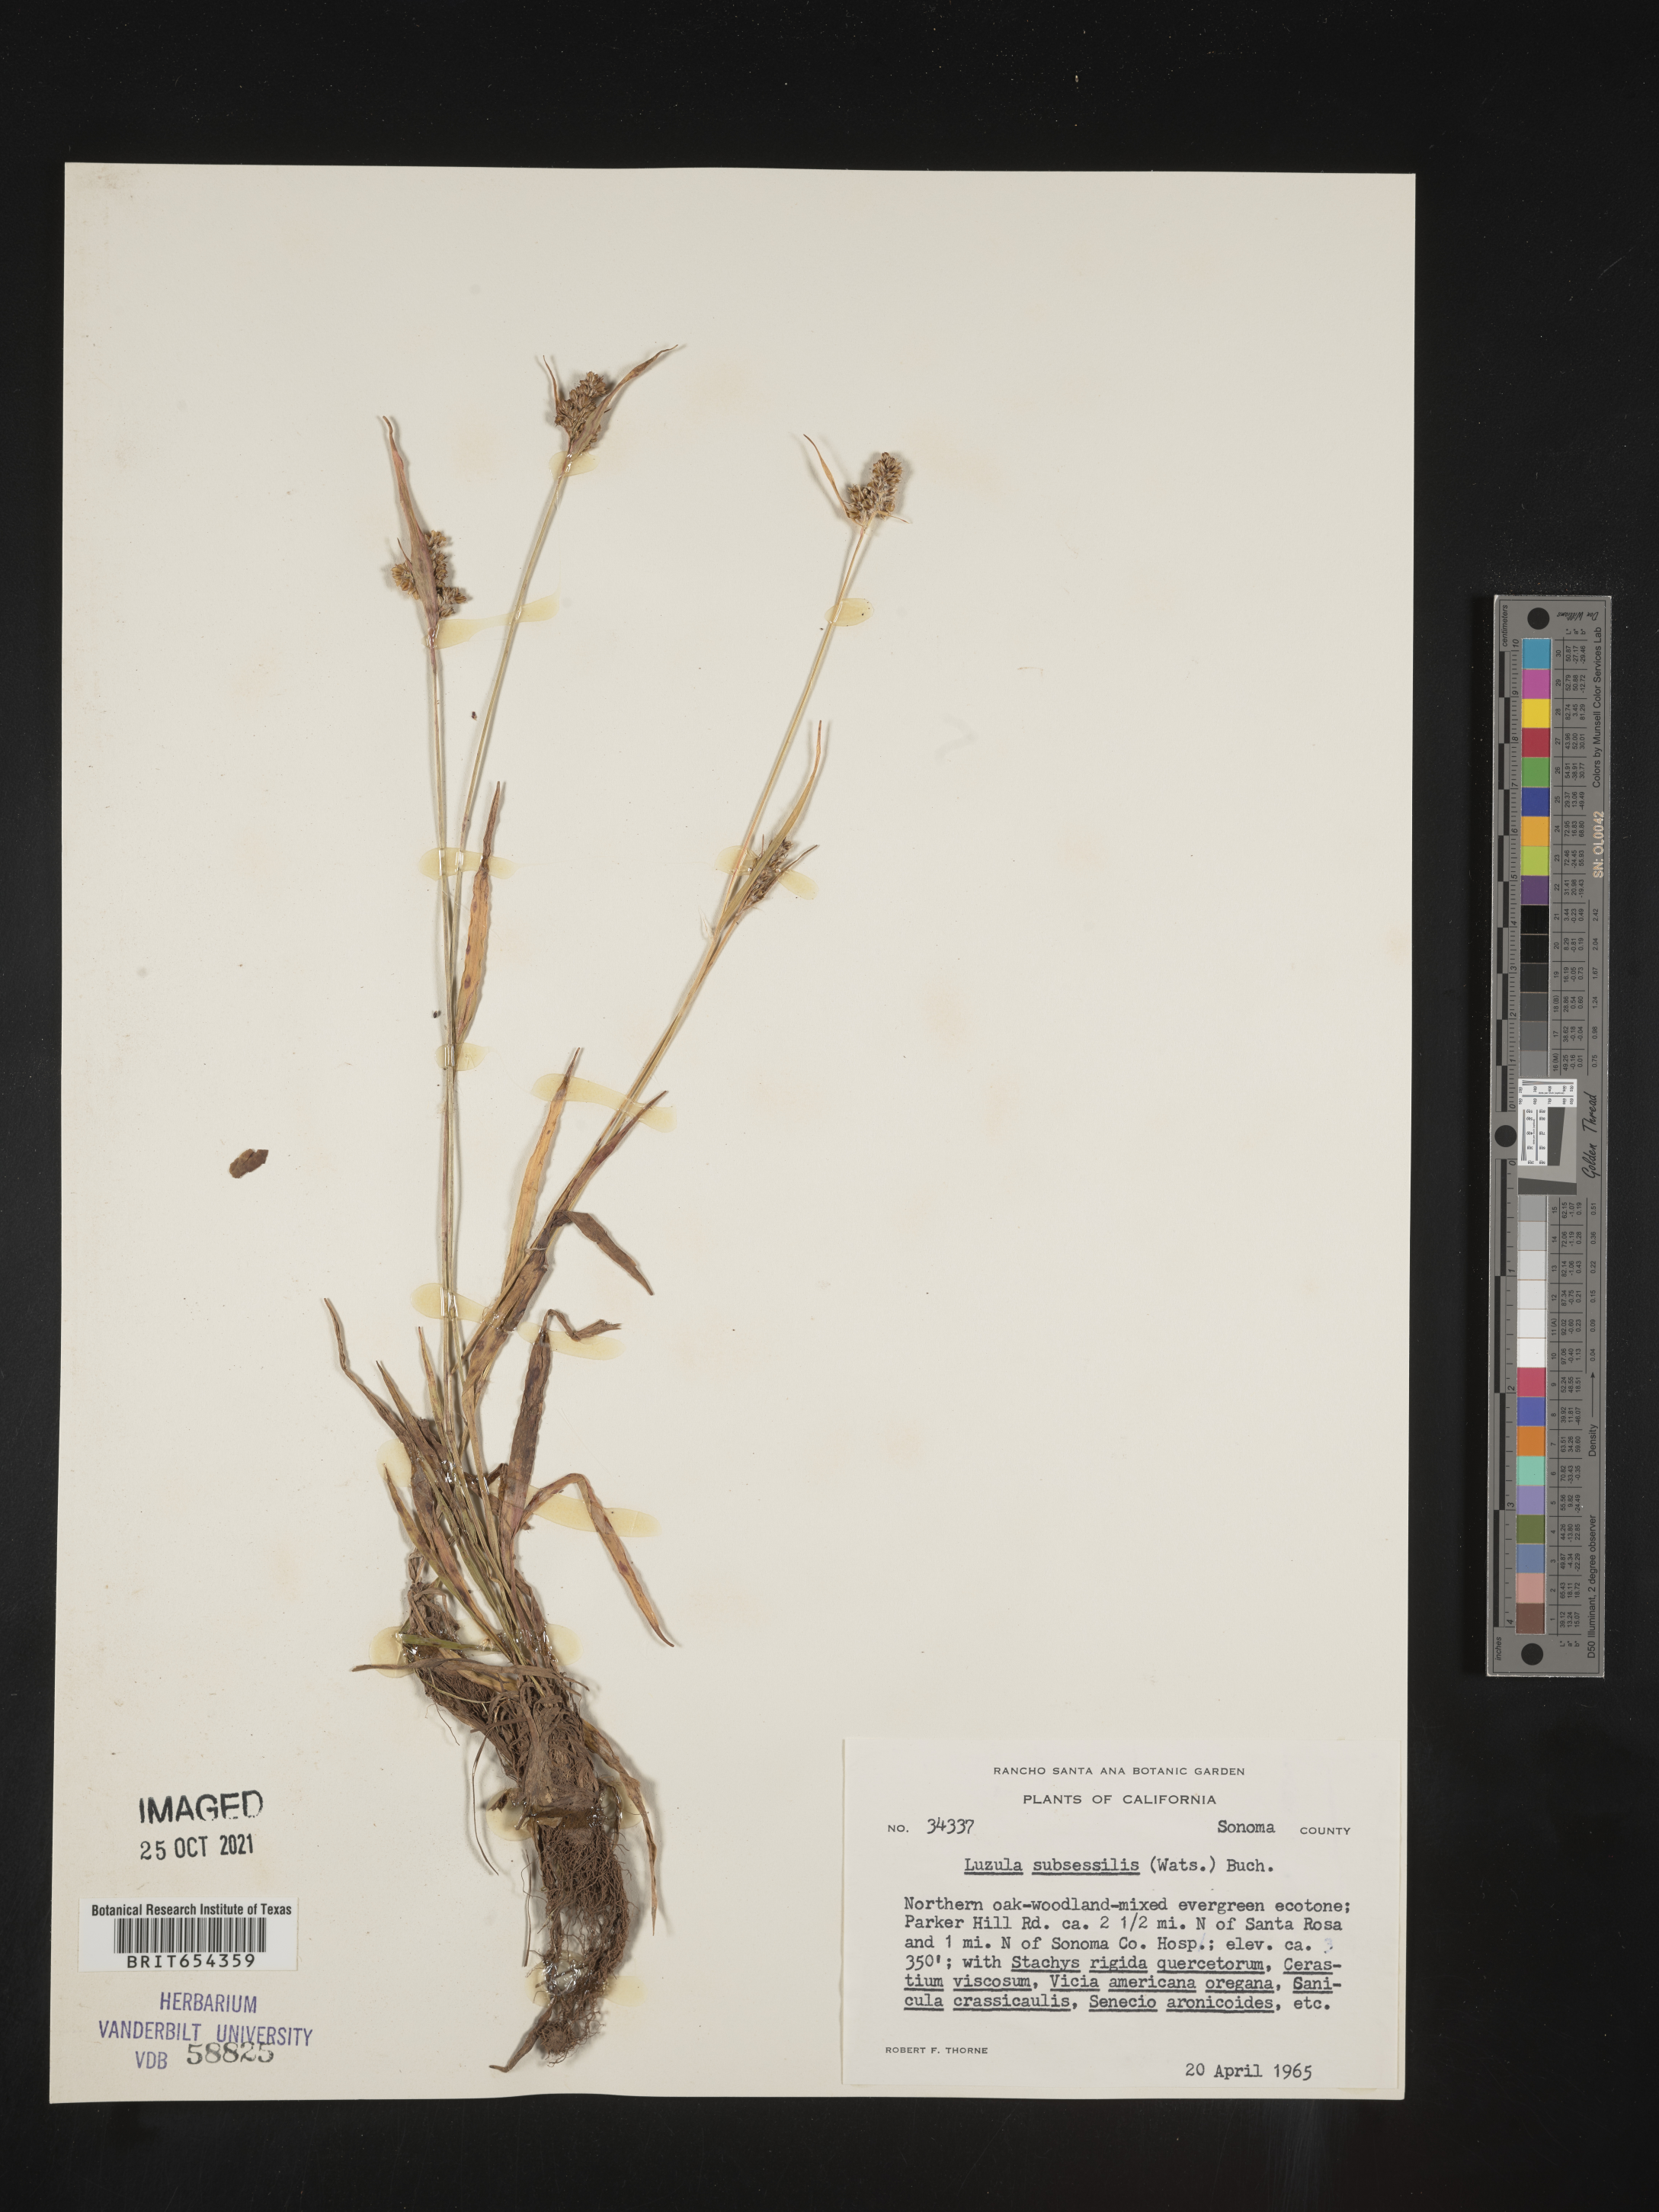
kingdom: Plantae
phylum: Tracheophyta
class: Liliopsida
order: Poales
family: Juncaceae
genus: Luzula
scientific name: Luzula
